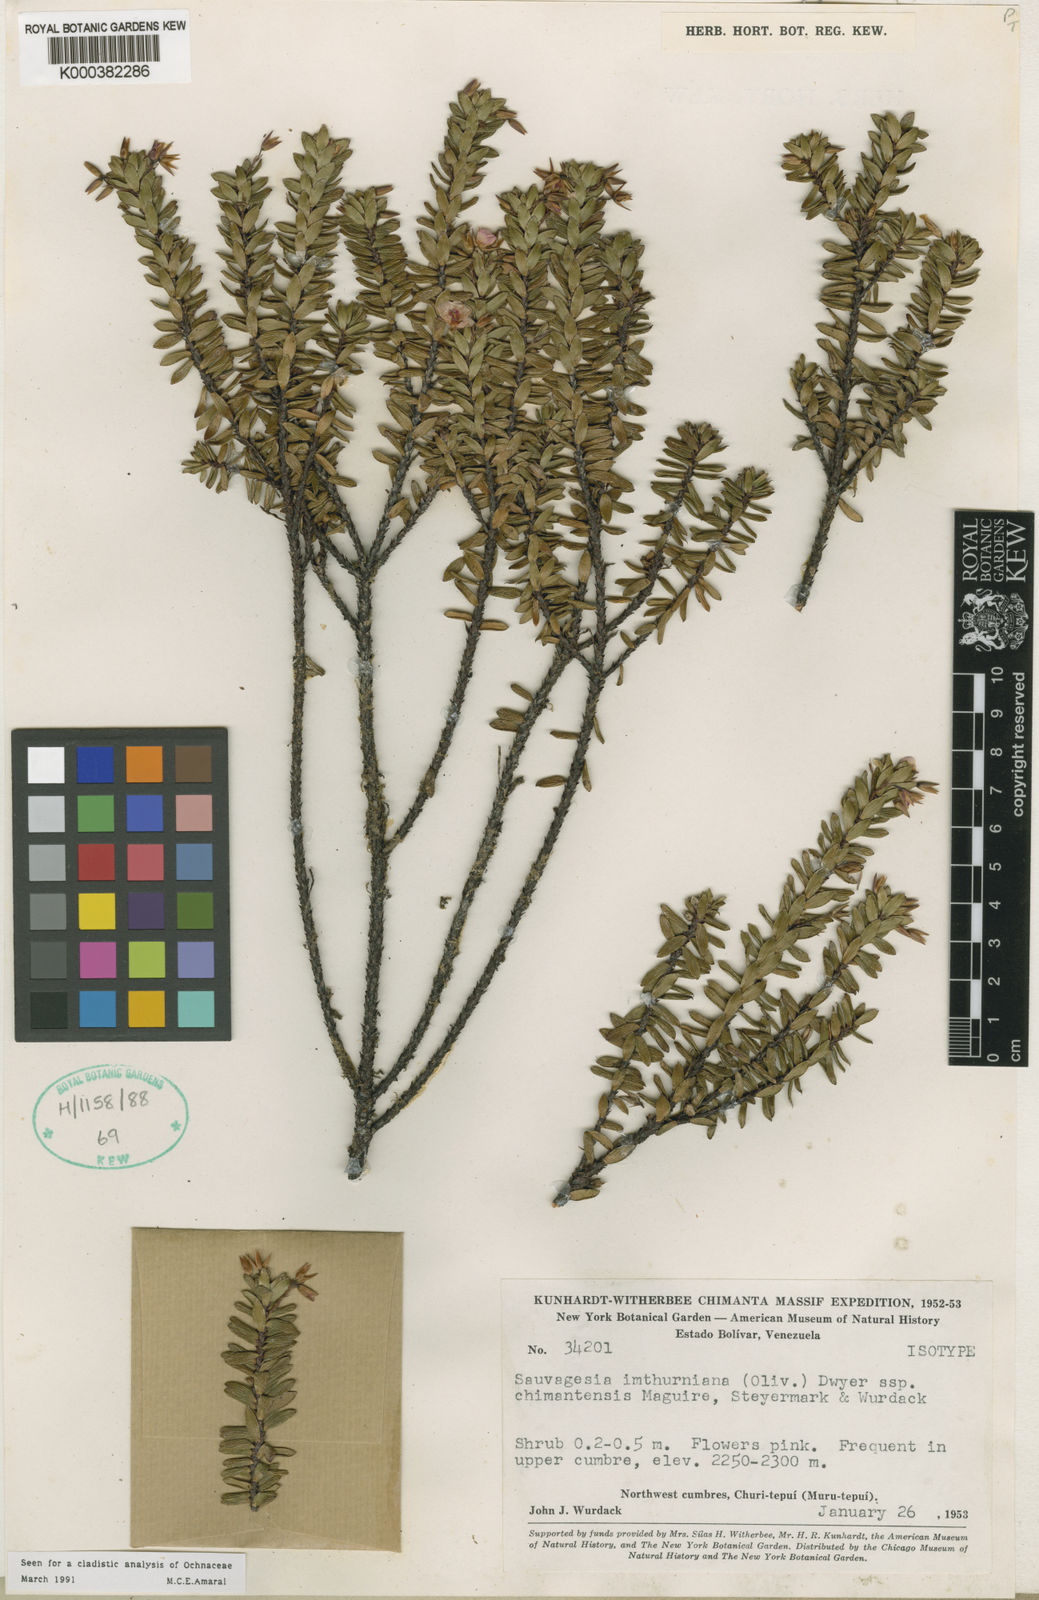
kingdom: Plantae
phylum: Tracheophyta
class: Magnoliopsida
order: Malpighiales
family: Ochnaceae
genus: Sauvagesia
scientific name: Sauvagesia imthurniana
